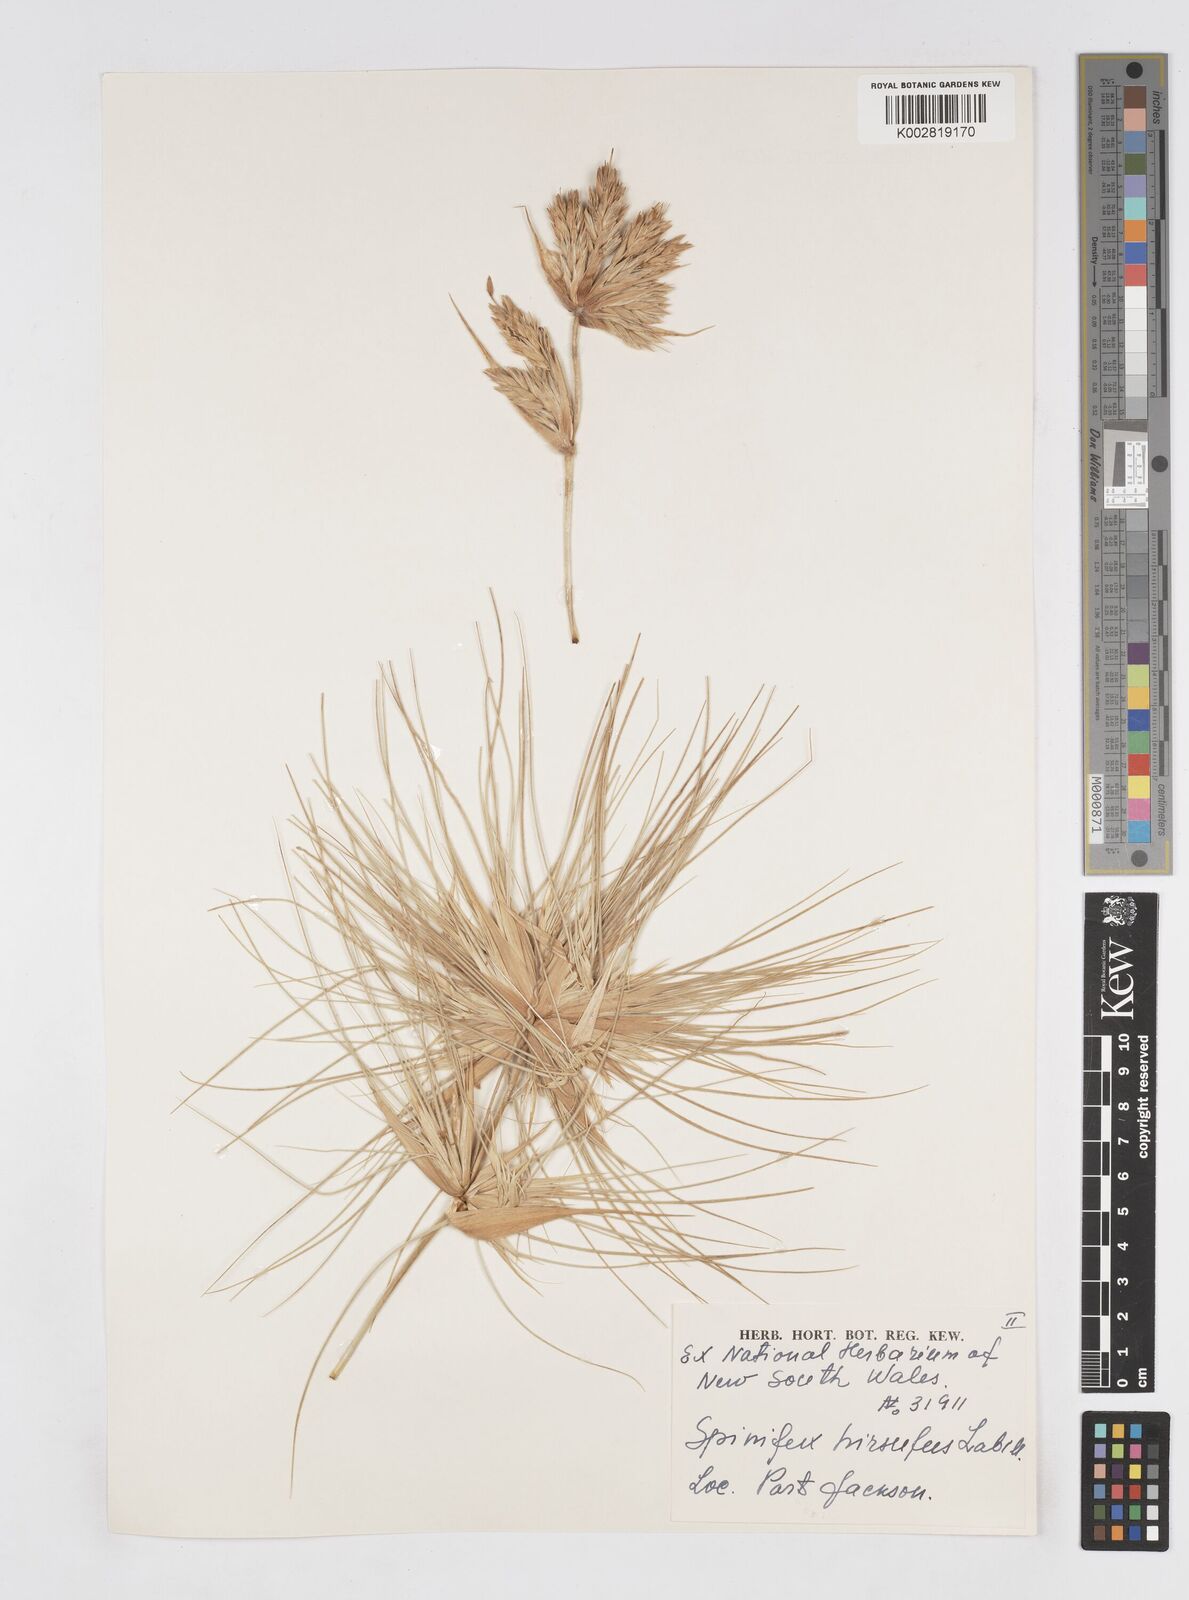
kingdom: Plantae
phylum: Tracheophyta
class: Liliopsida
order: Poales
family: Poaceae
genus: Spinifex
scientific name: Spinifex hirsutus
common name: Hairy spinifex
